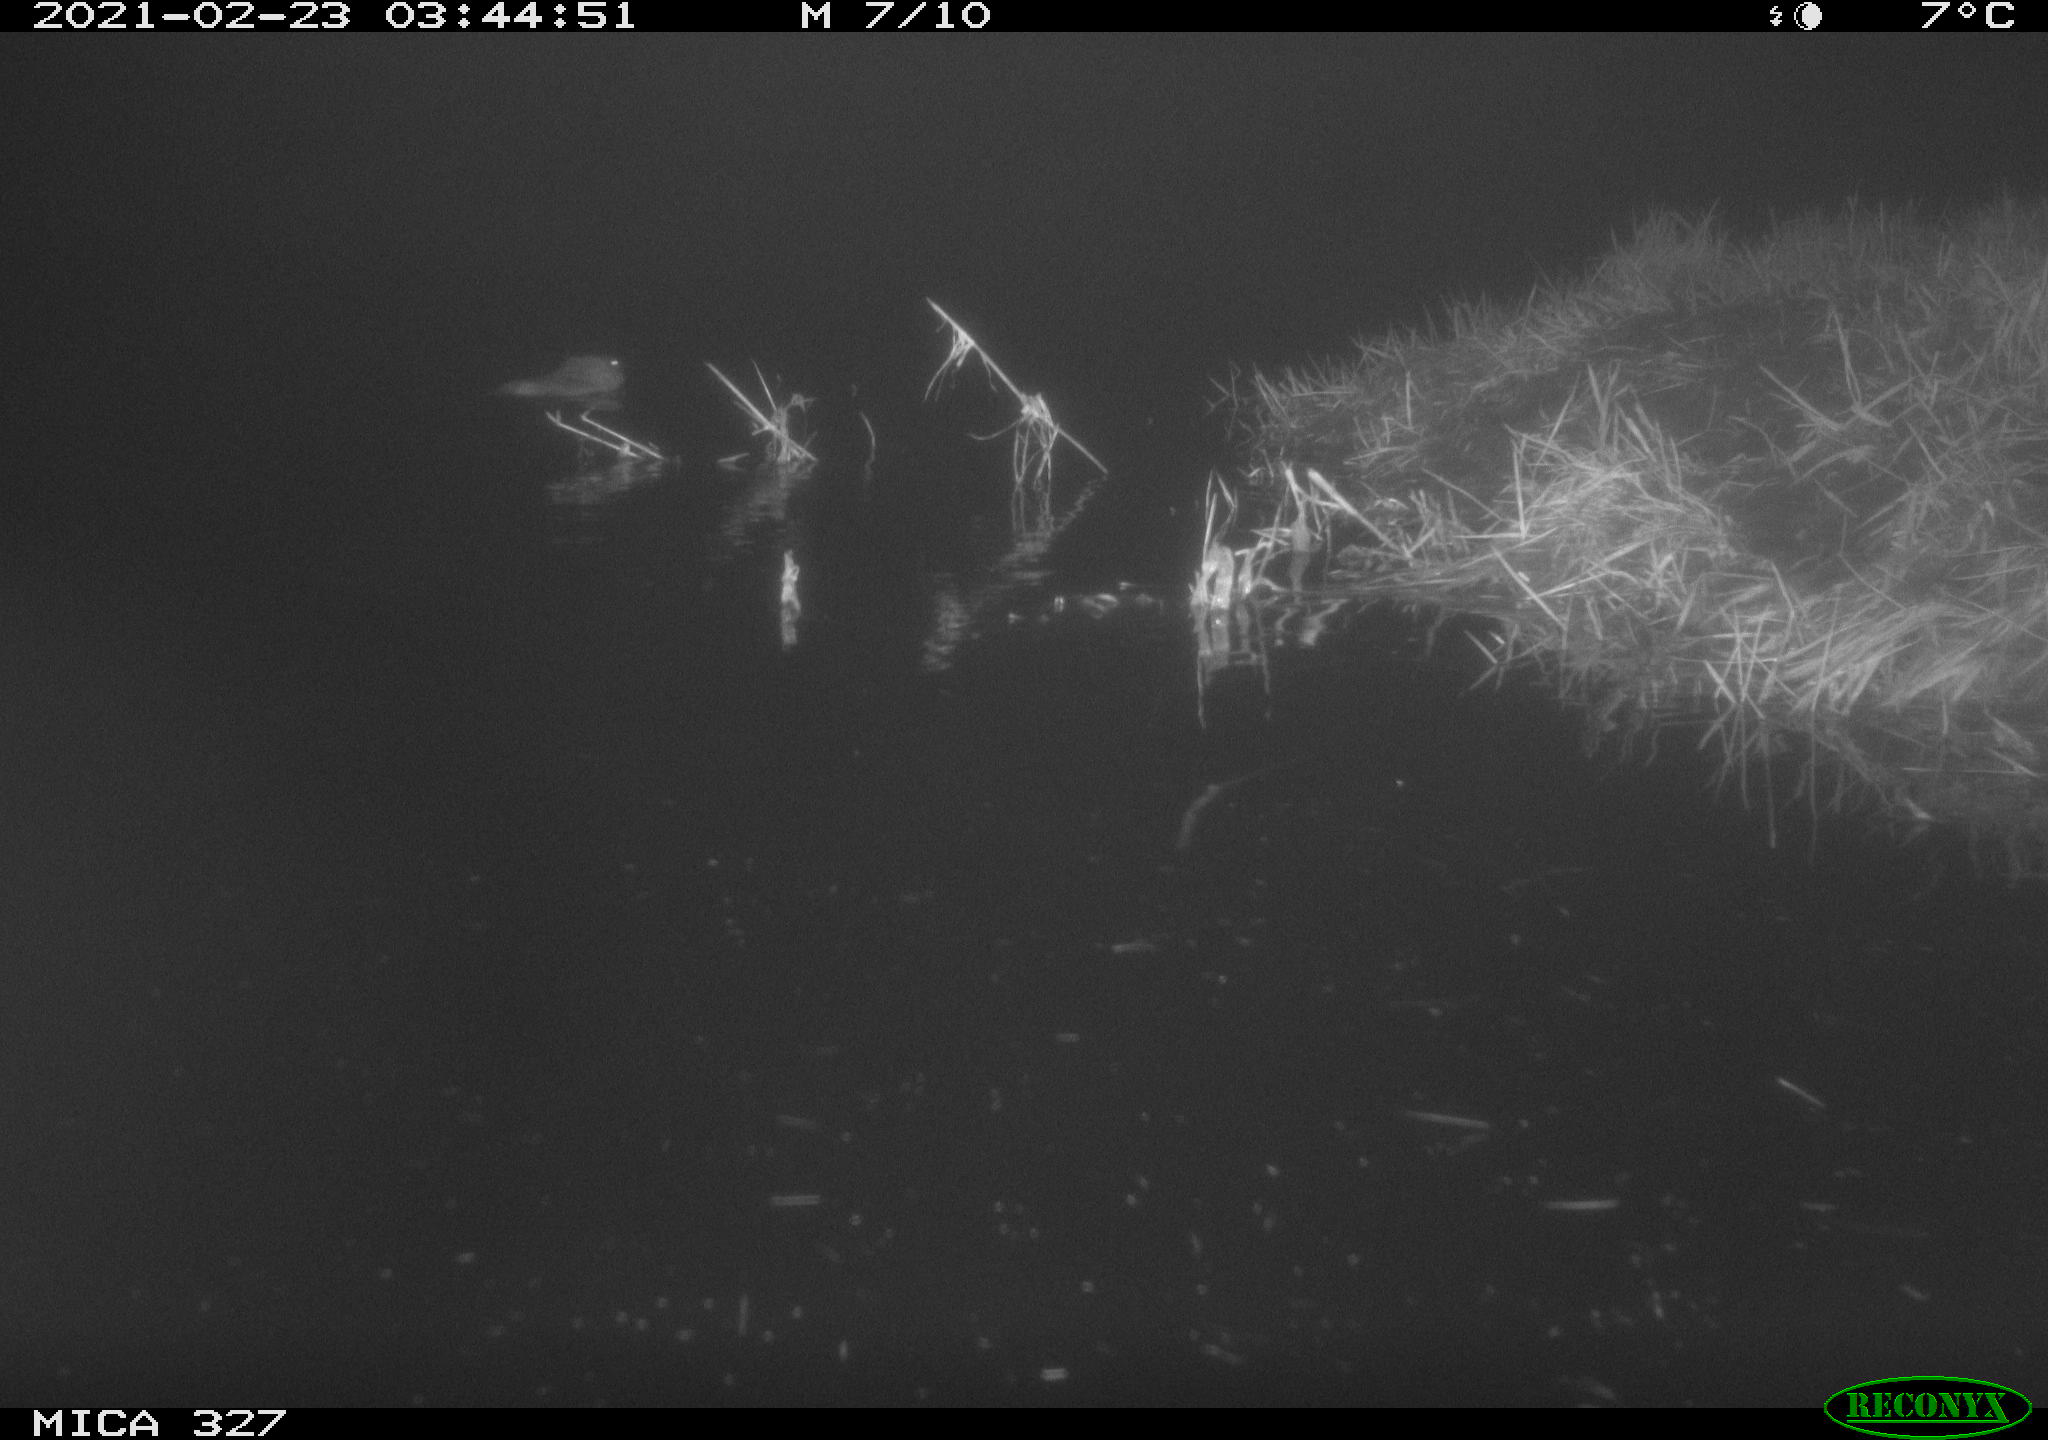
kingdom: Animalia
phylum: Chordata
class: Mammalia
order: Rodentia
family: Cricetidae
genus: Ondatra
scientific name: Ondatra zibethicus
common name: Muskrat
